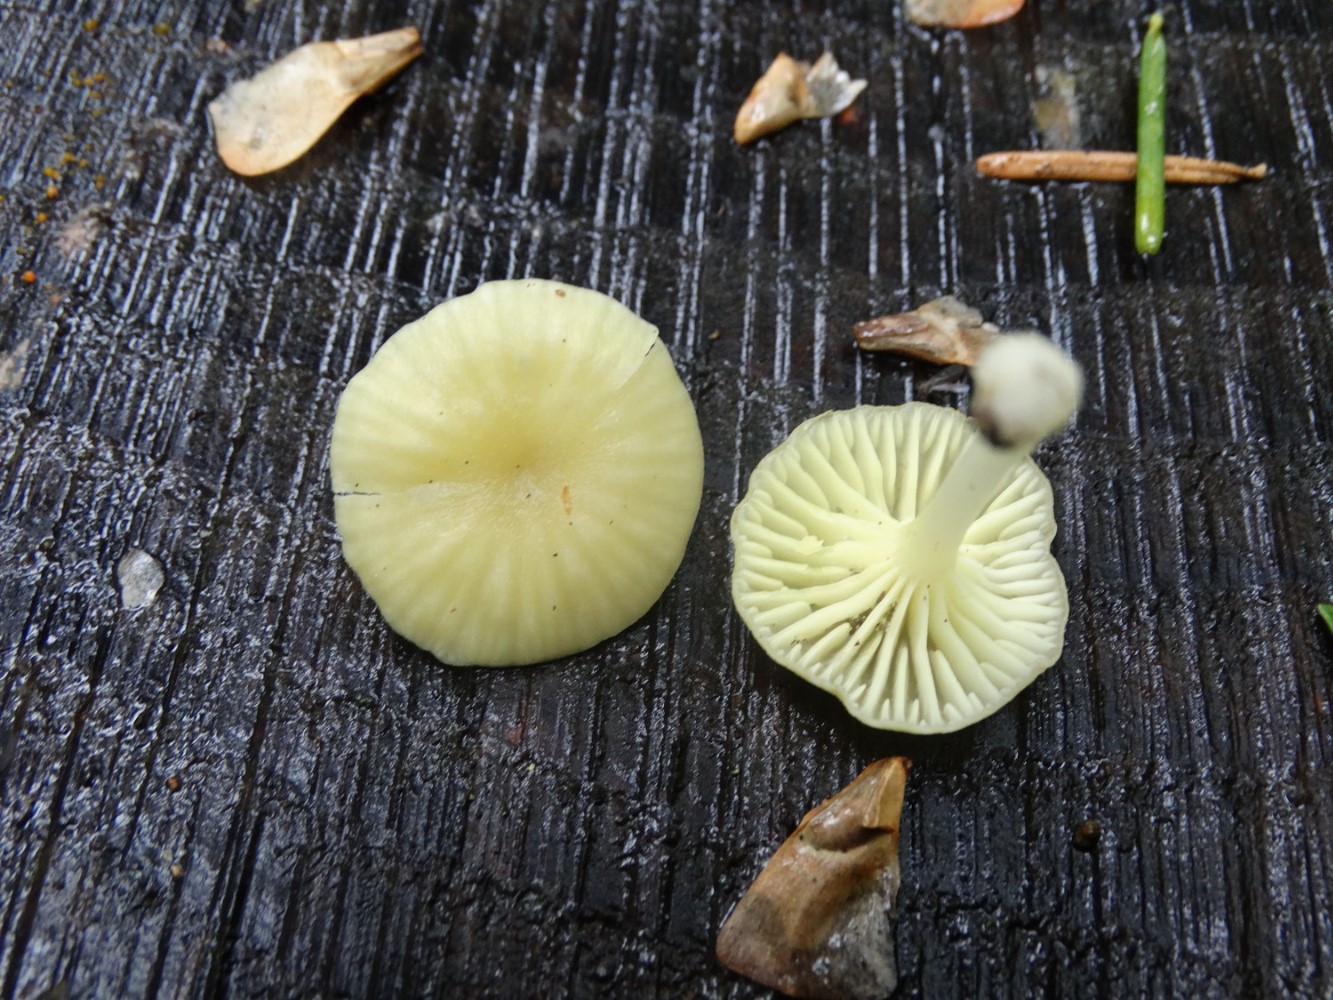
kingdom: Fungi
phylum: Basidiomycota
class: Agaricomycetes
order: Agaricales
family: Hygrophoraceae
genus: Chrysomphalina
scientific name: Chrysomphalina grossula
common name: stød-gyldenblad
